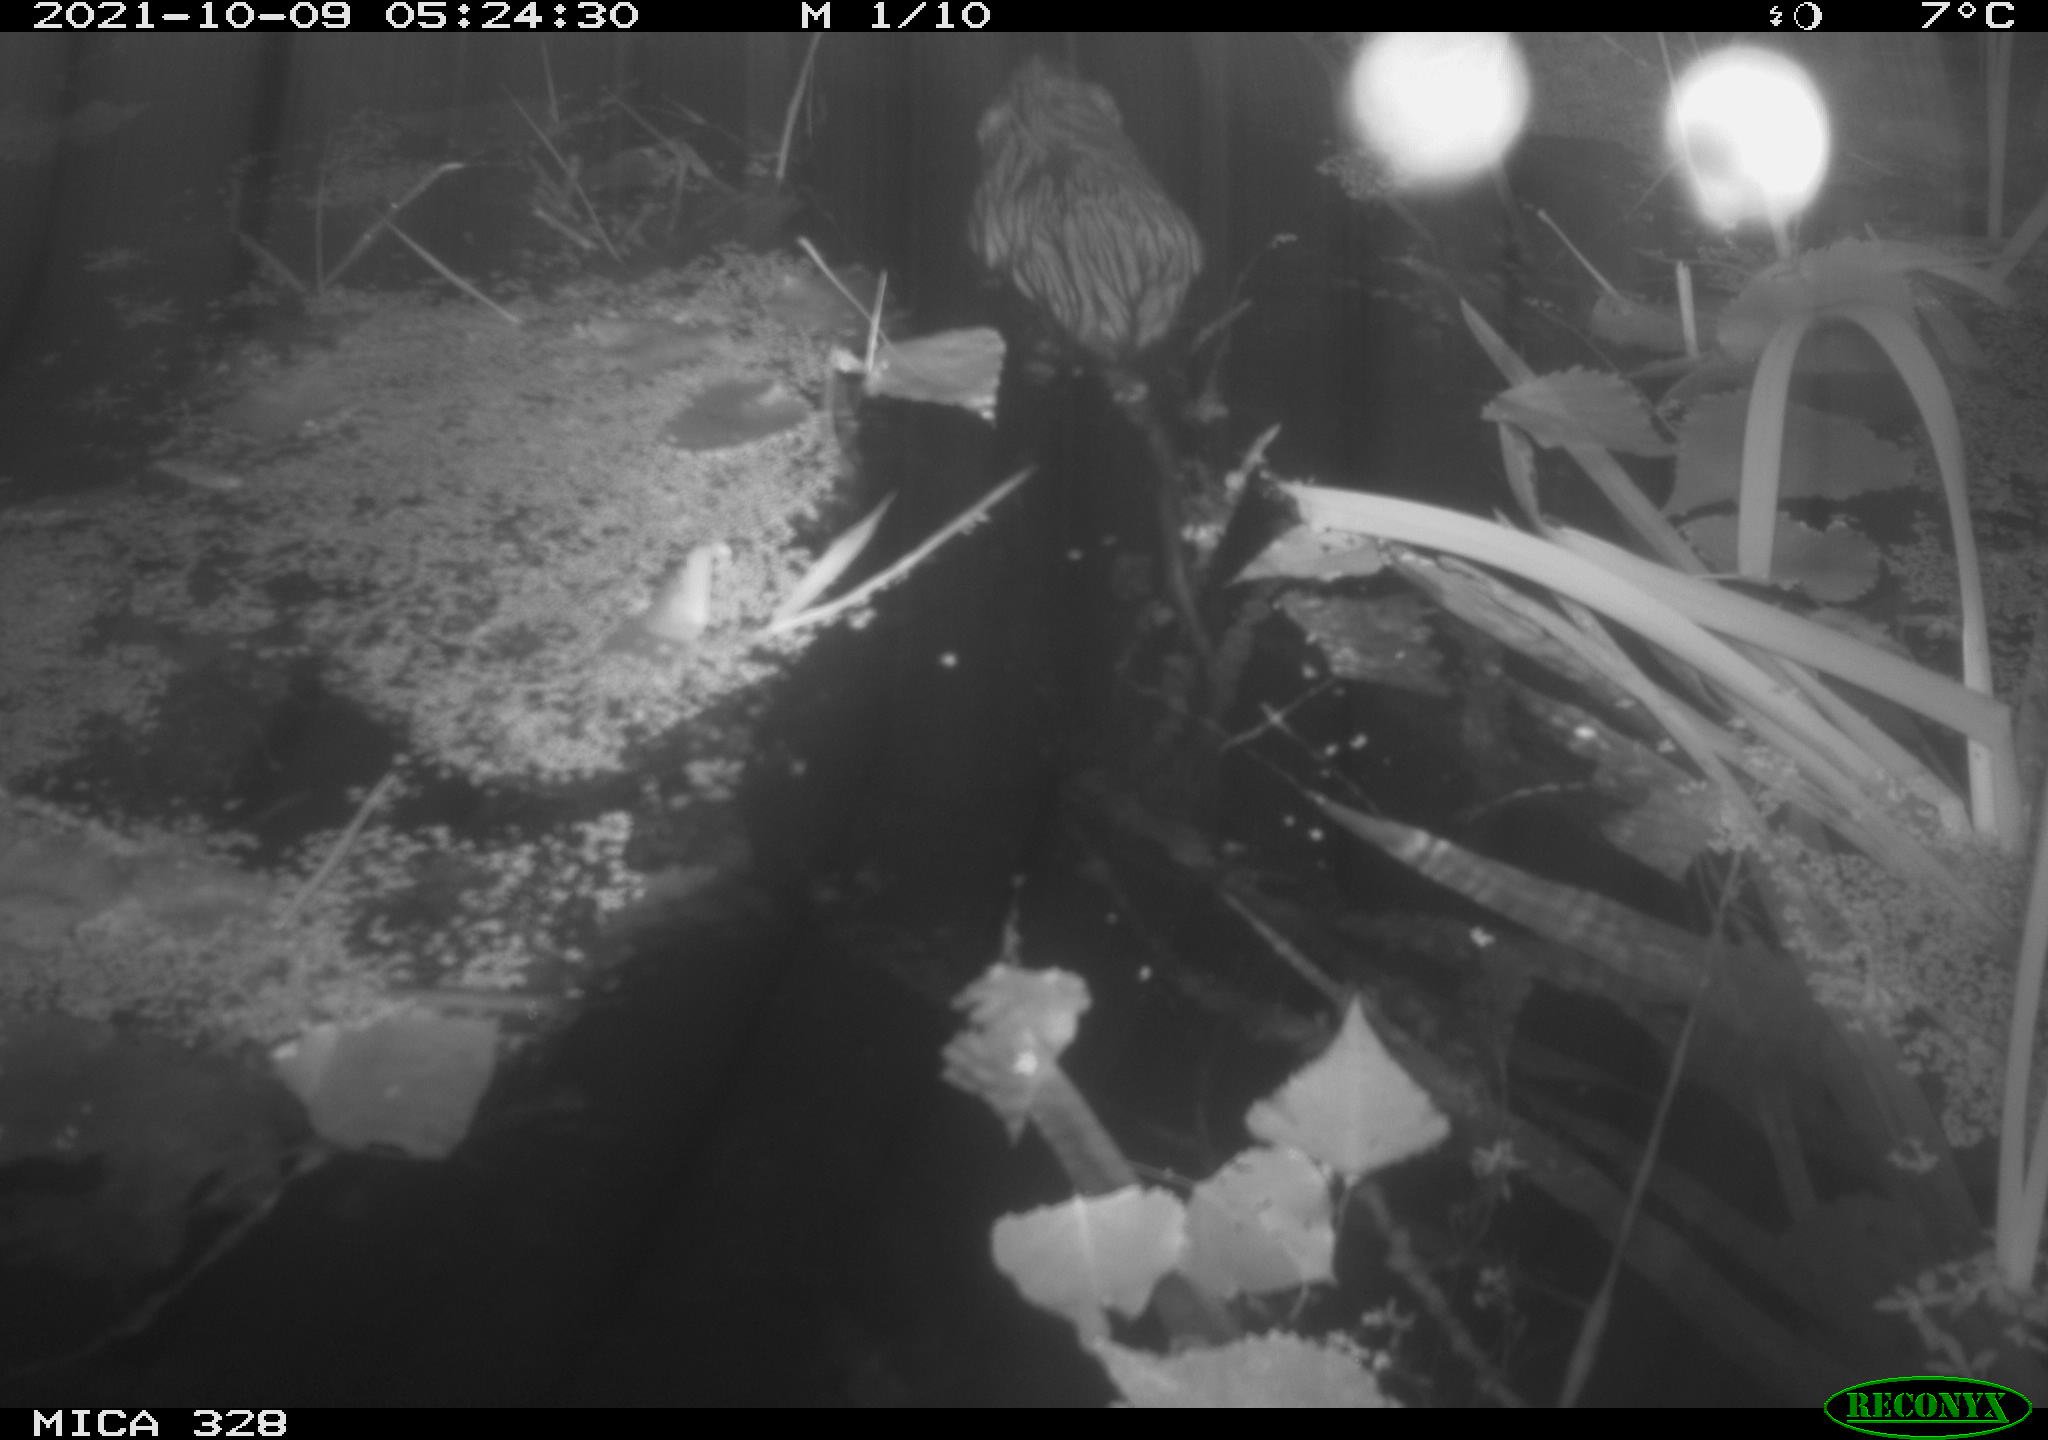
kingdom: Animalia
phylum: Chordata
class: Mammalia
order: Rodentia
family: Cricetidae
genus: Ondatra
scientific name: Ondatra zibethicus
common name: Muskrat
